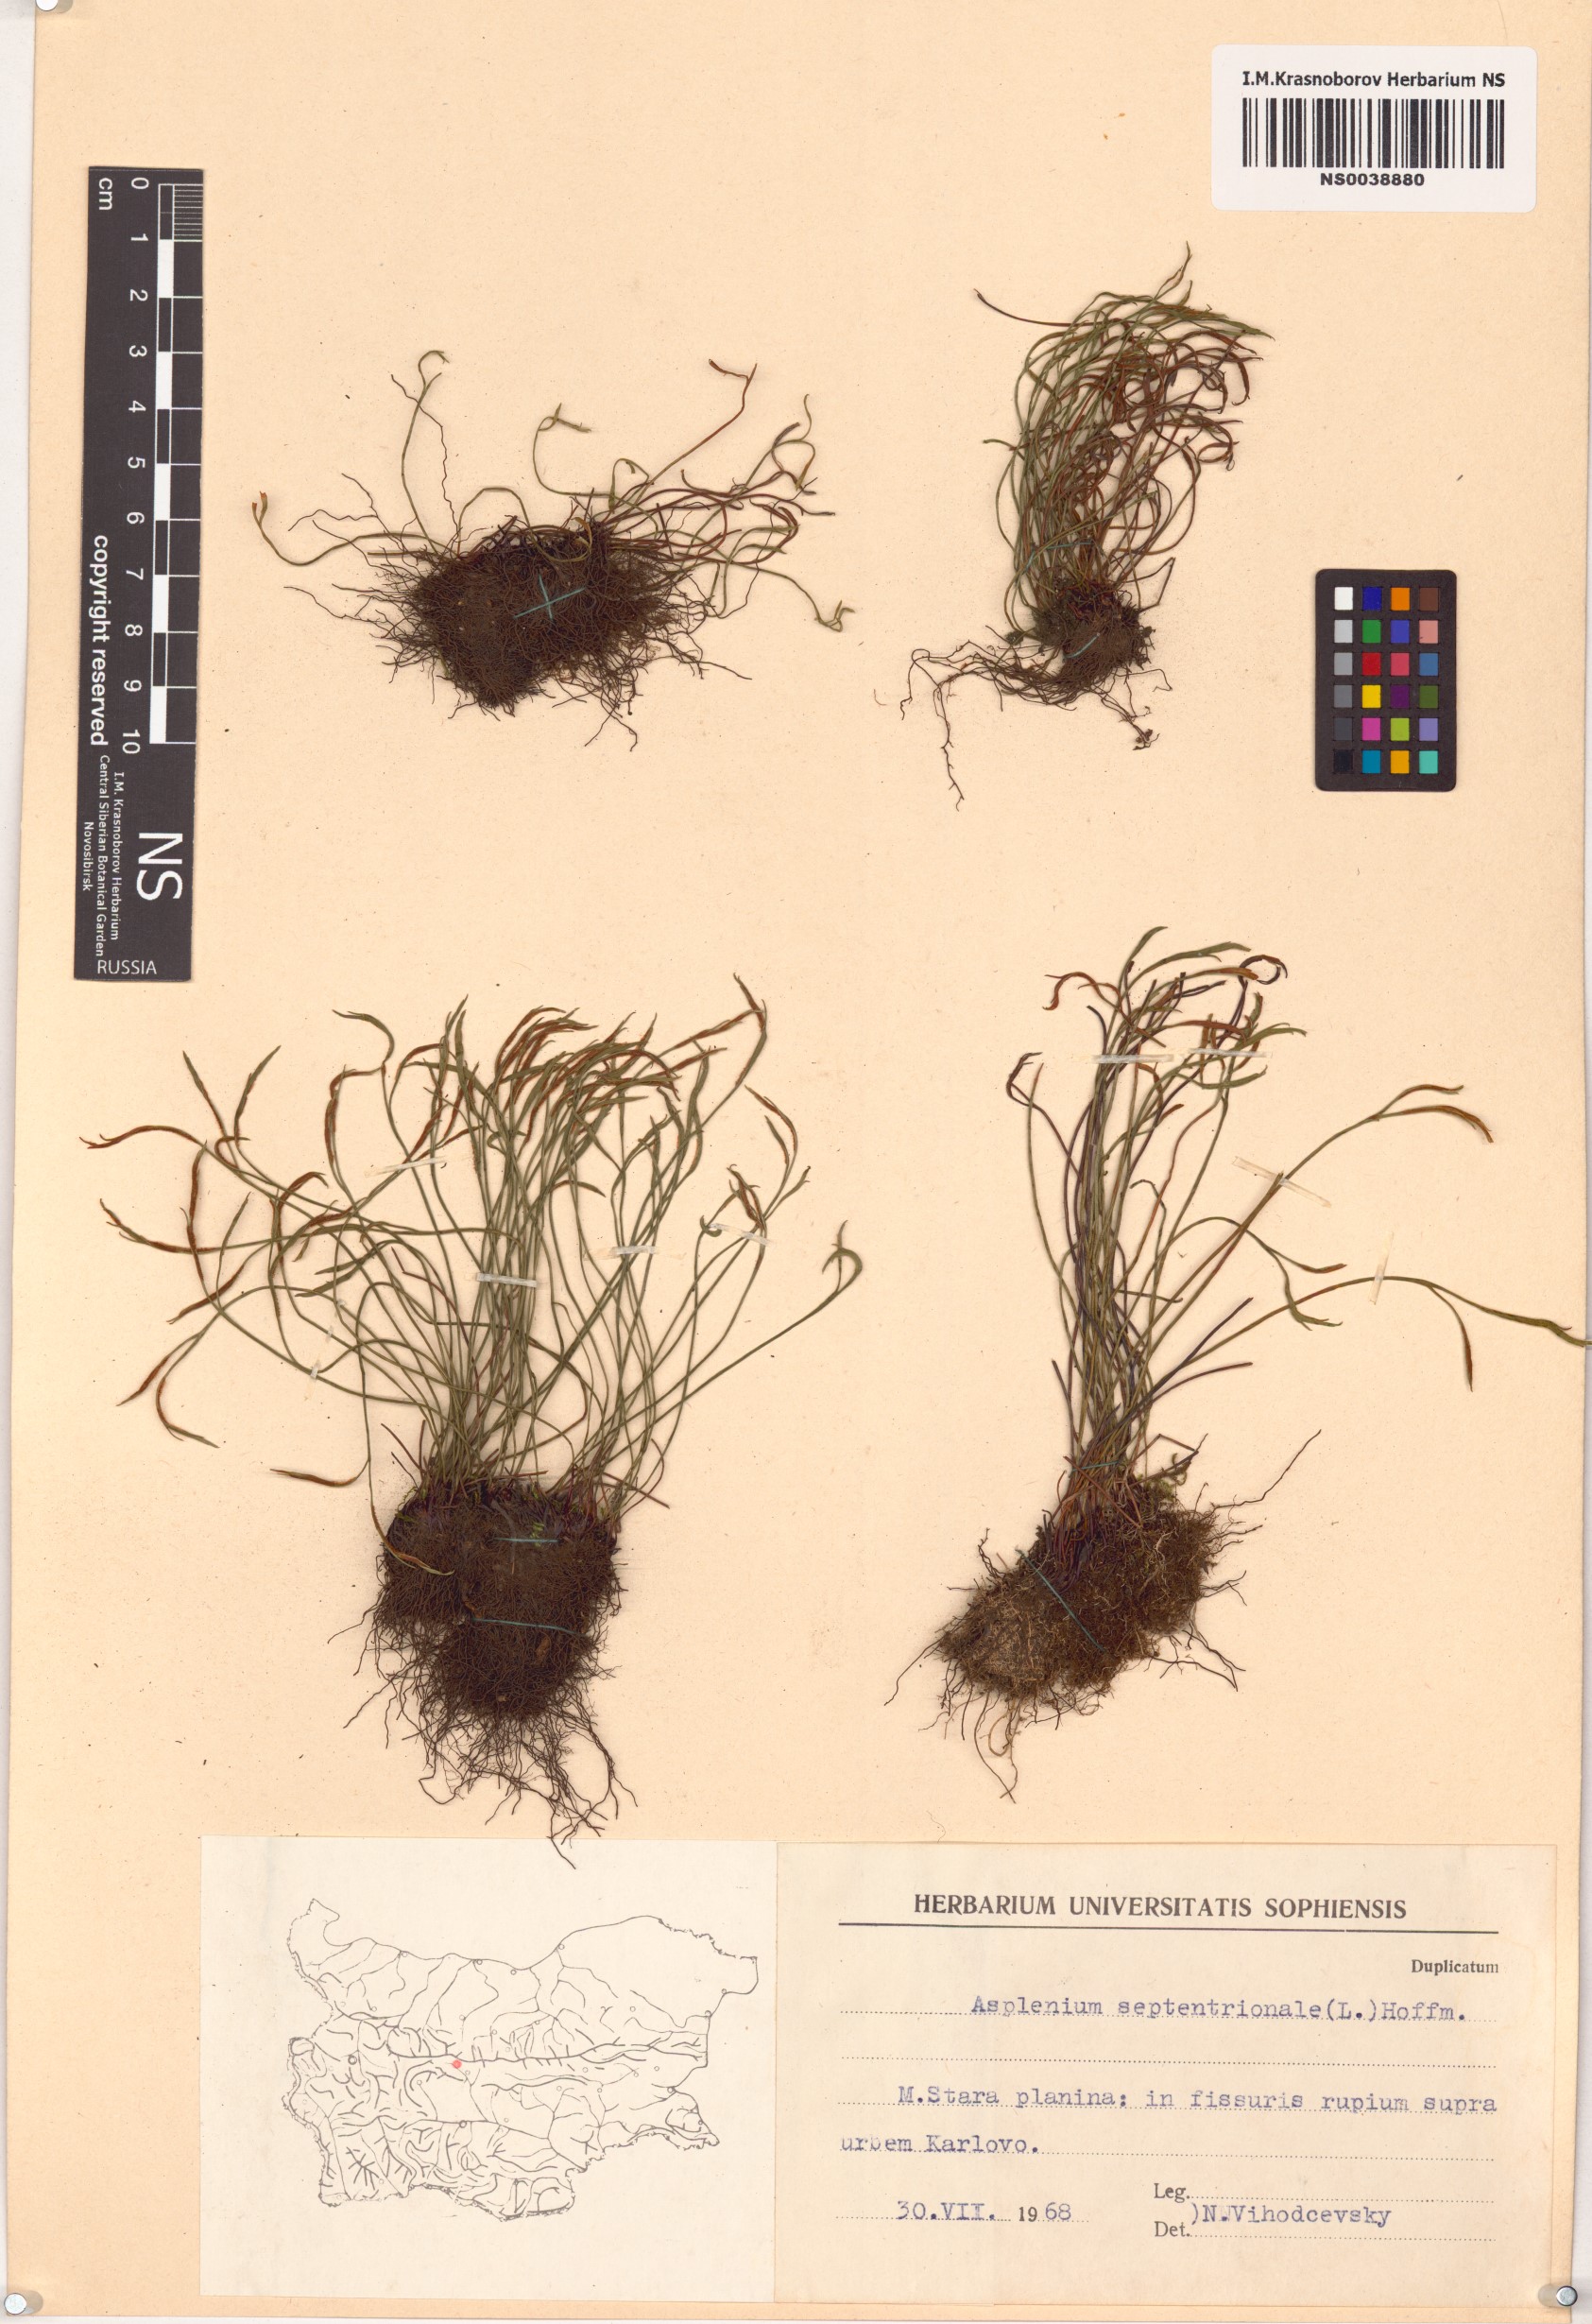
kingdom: Plantae
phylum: Tracheophyta
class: Polypodiopsida
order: Polypodiales
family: Aspleniaceae
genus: Asplenium
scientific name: Asplenium septentrionale
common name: Forked spleenwort
